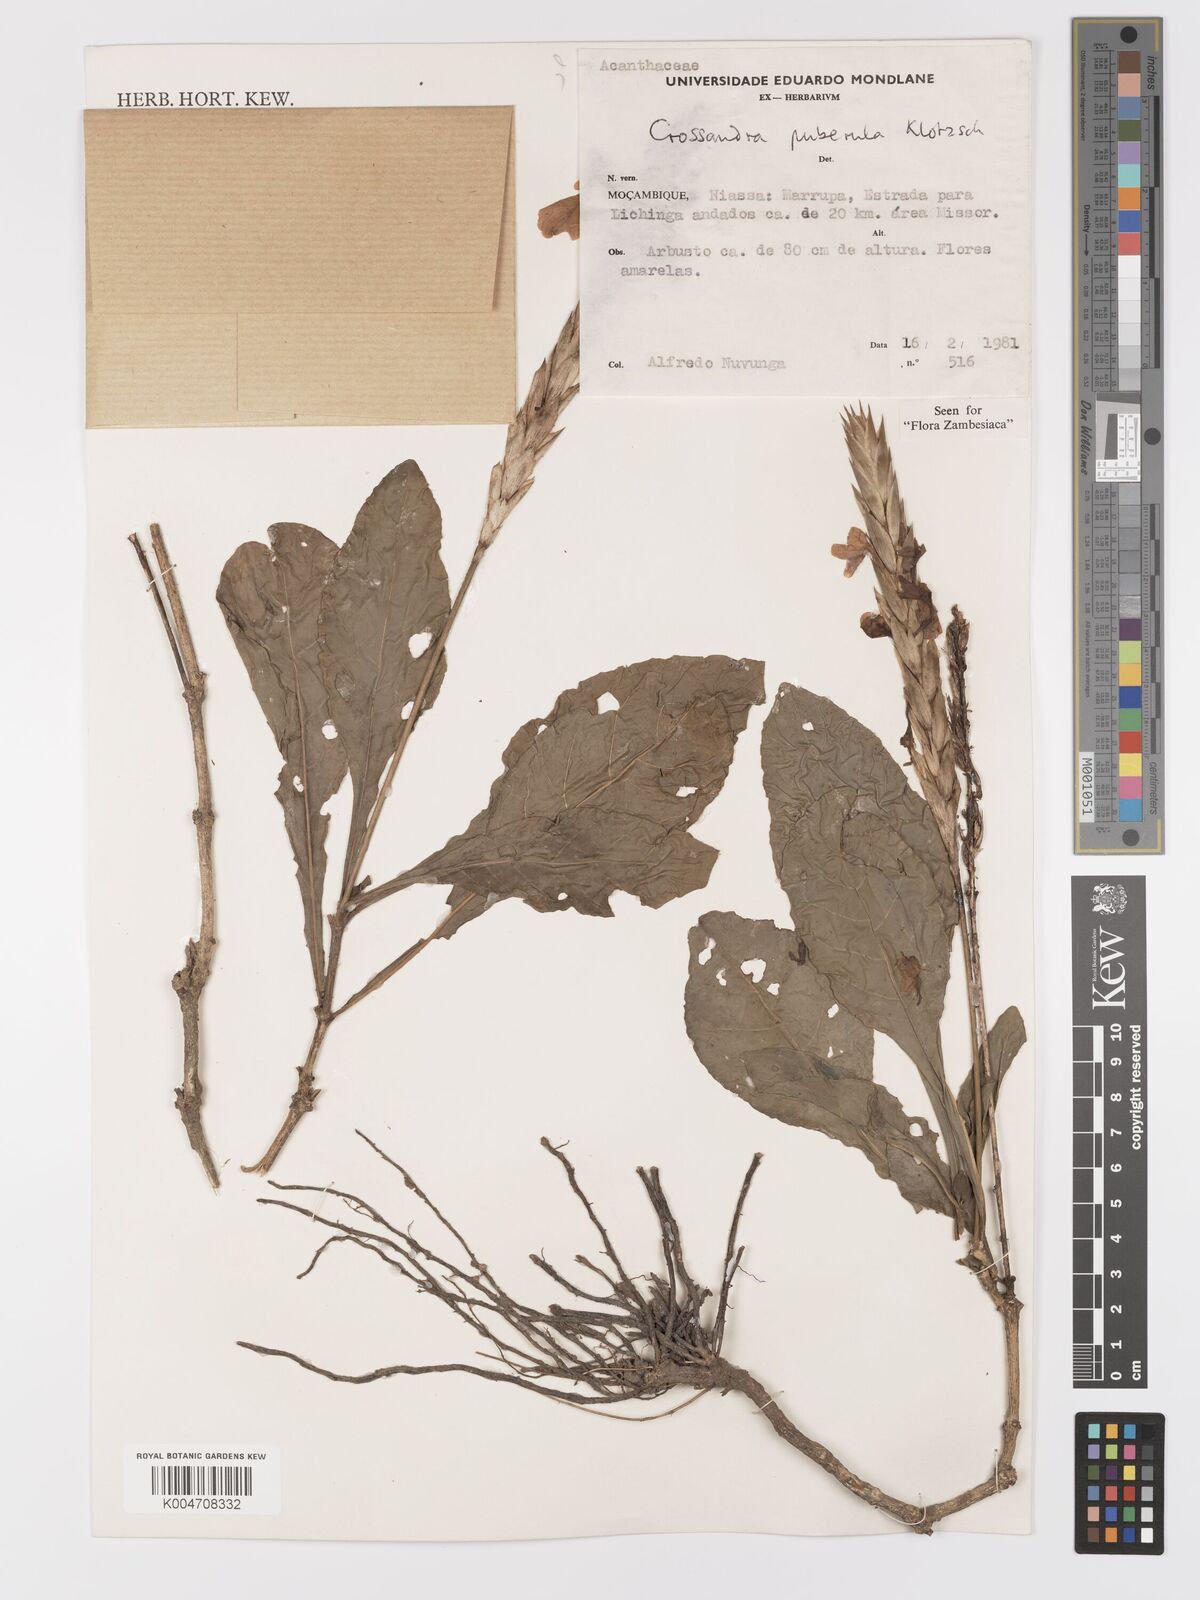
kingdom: Plantae
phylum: Tracheophyta
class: Magnoliopsida
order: Lamiales
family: Acanthaceae
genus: Crossandra
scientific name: Crossandra puberula
